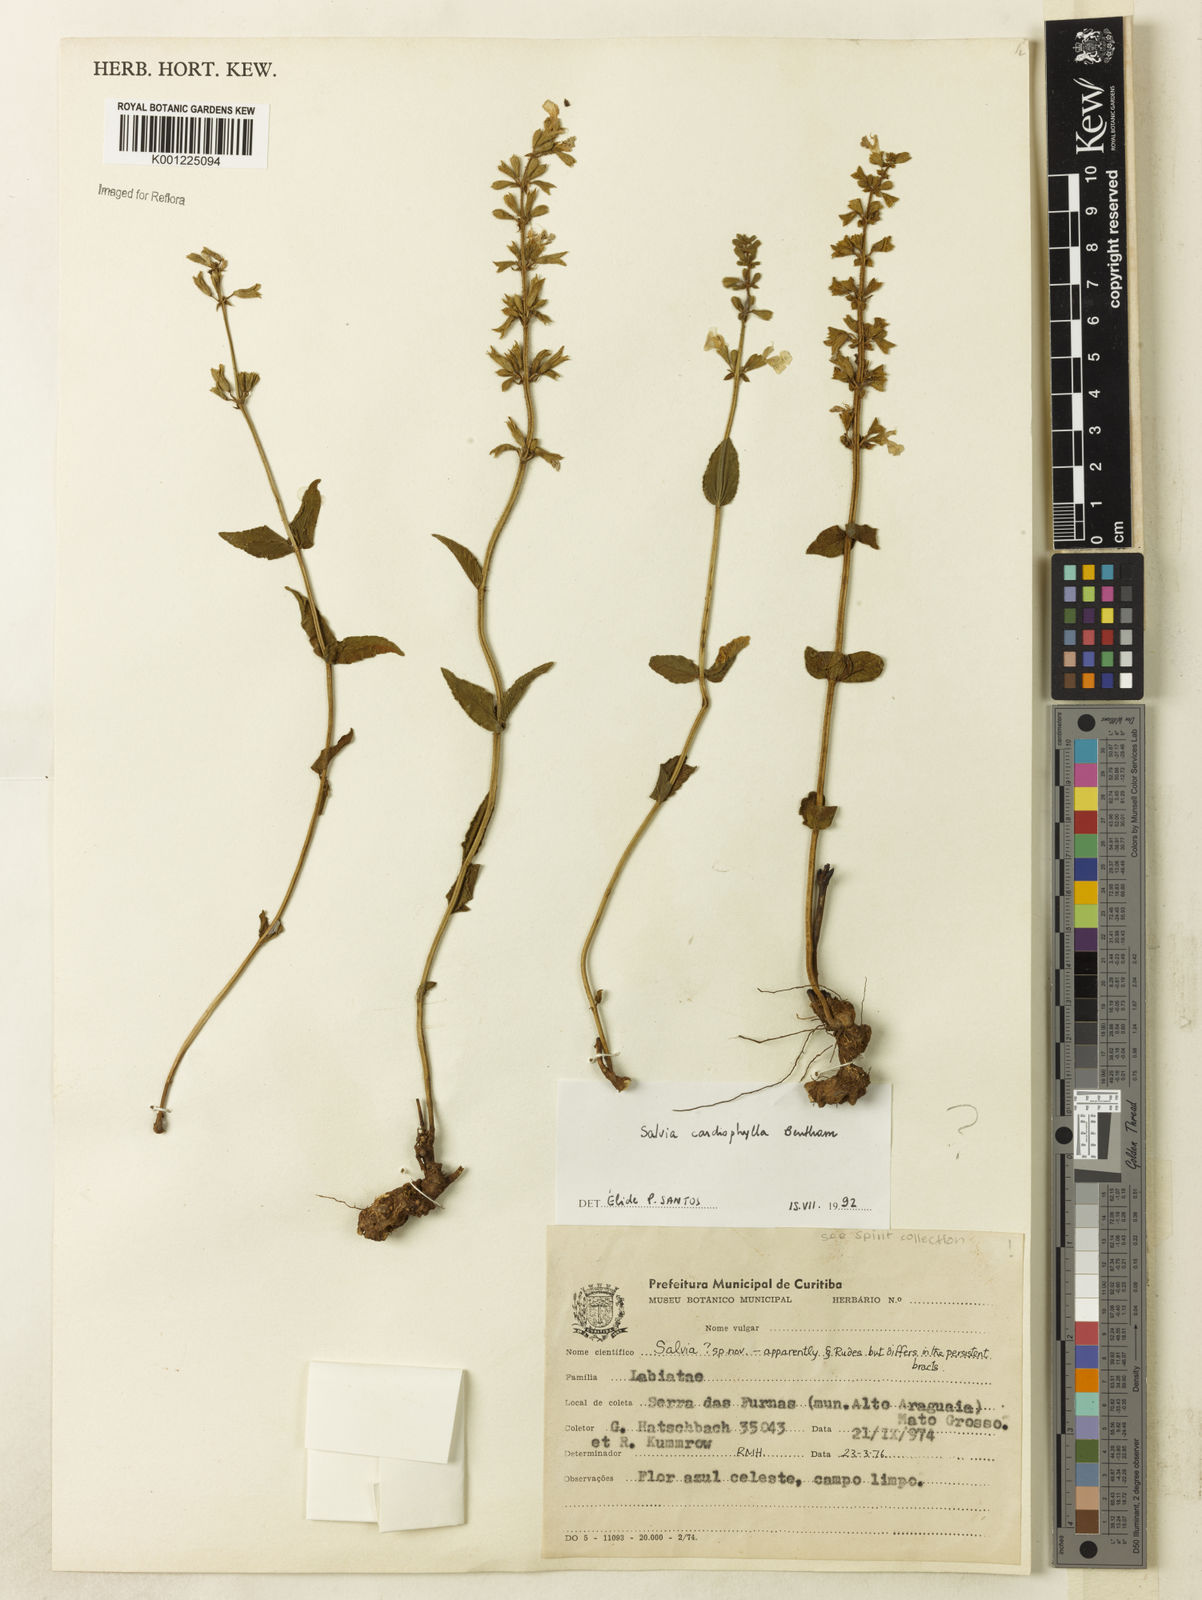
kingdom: Plantae
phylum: Tracheophyta
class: Magnoliopsida
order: Lamiales
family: Lamiaceae
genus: Salvia
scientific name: Salvia cardiophylla
